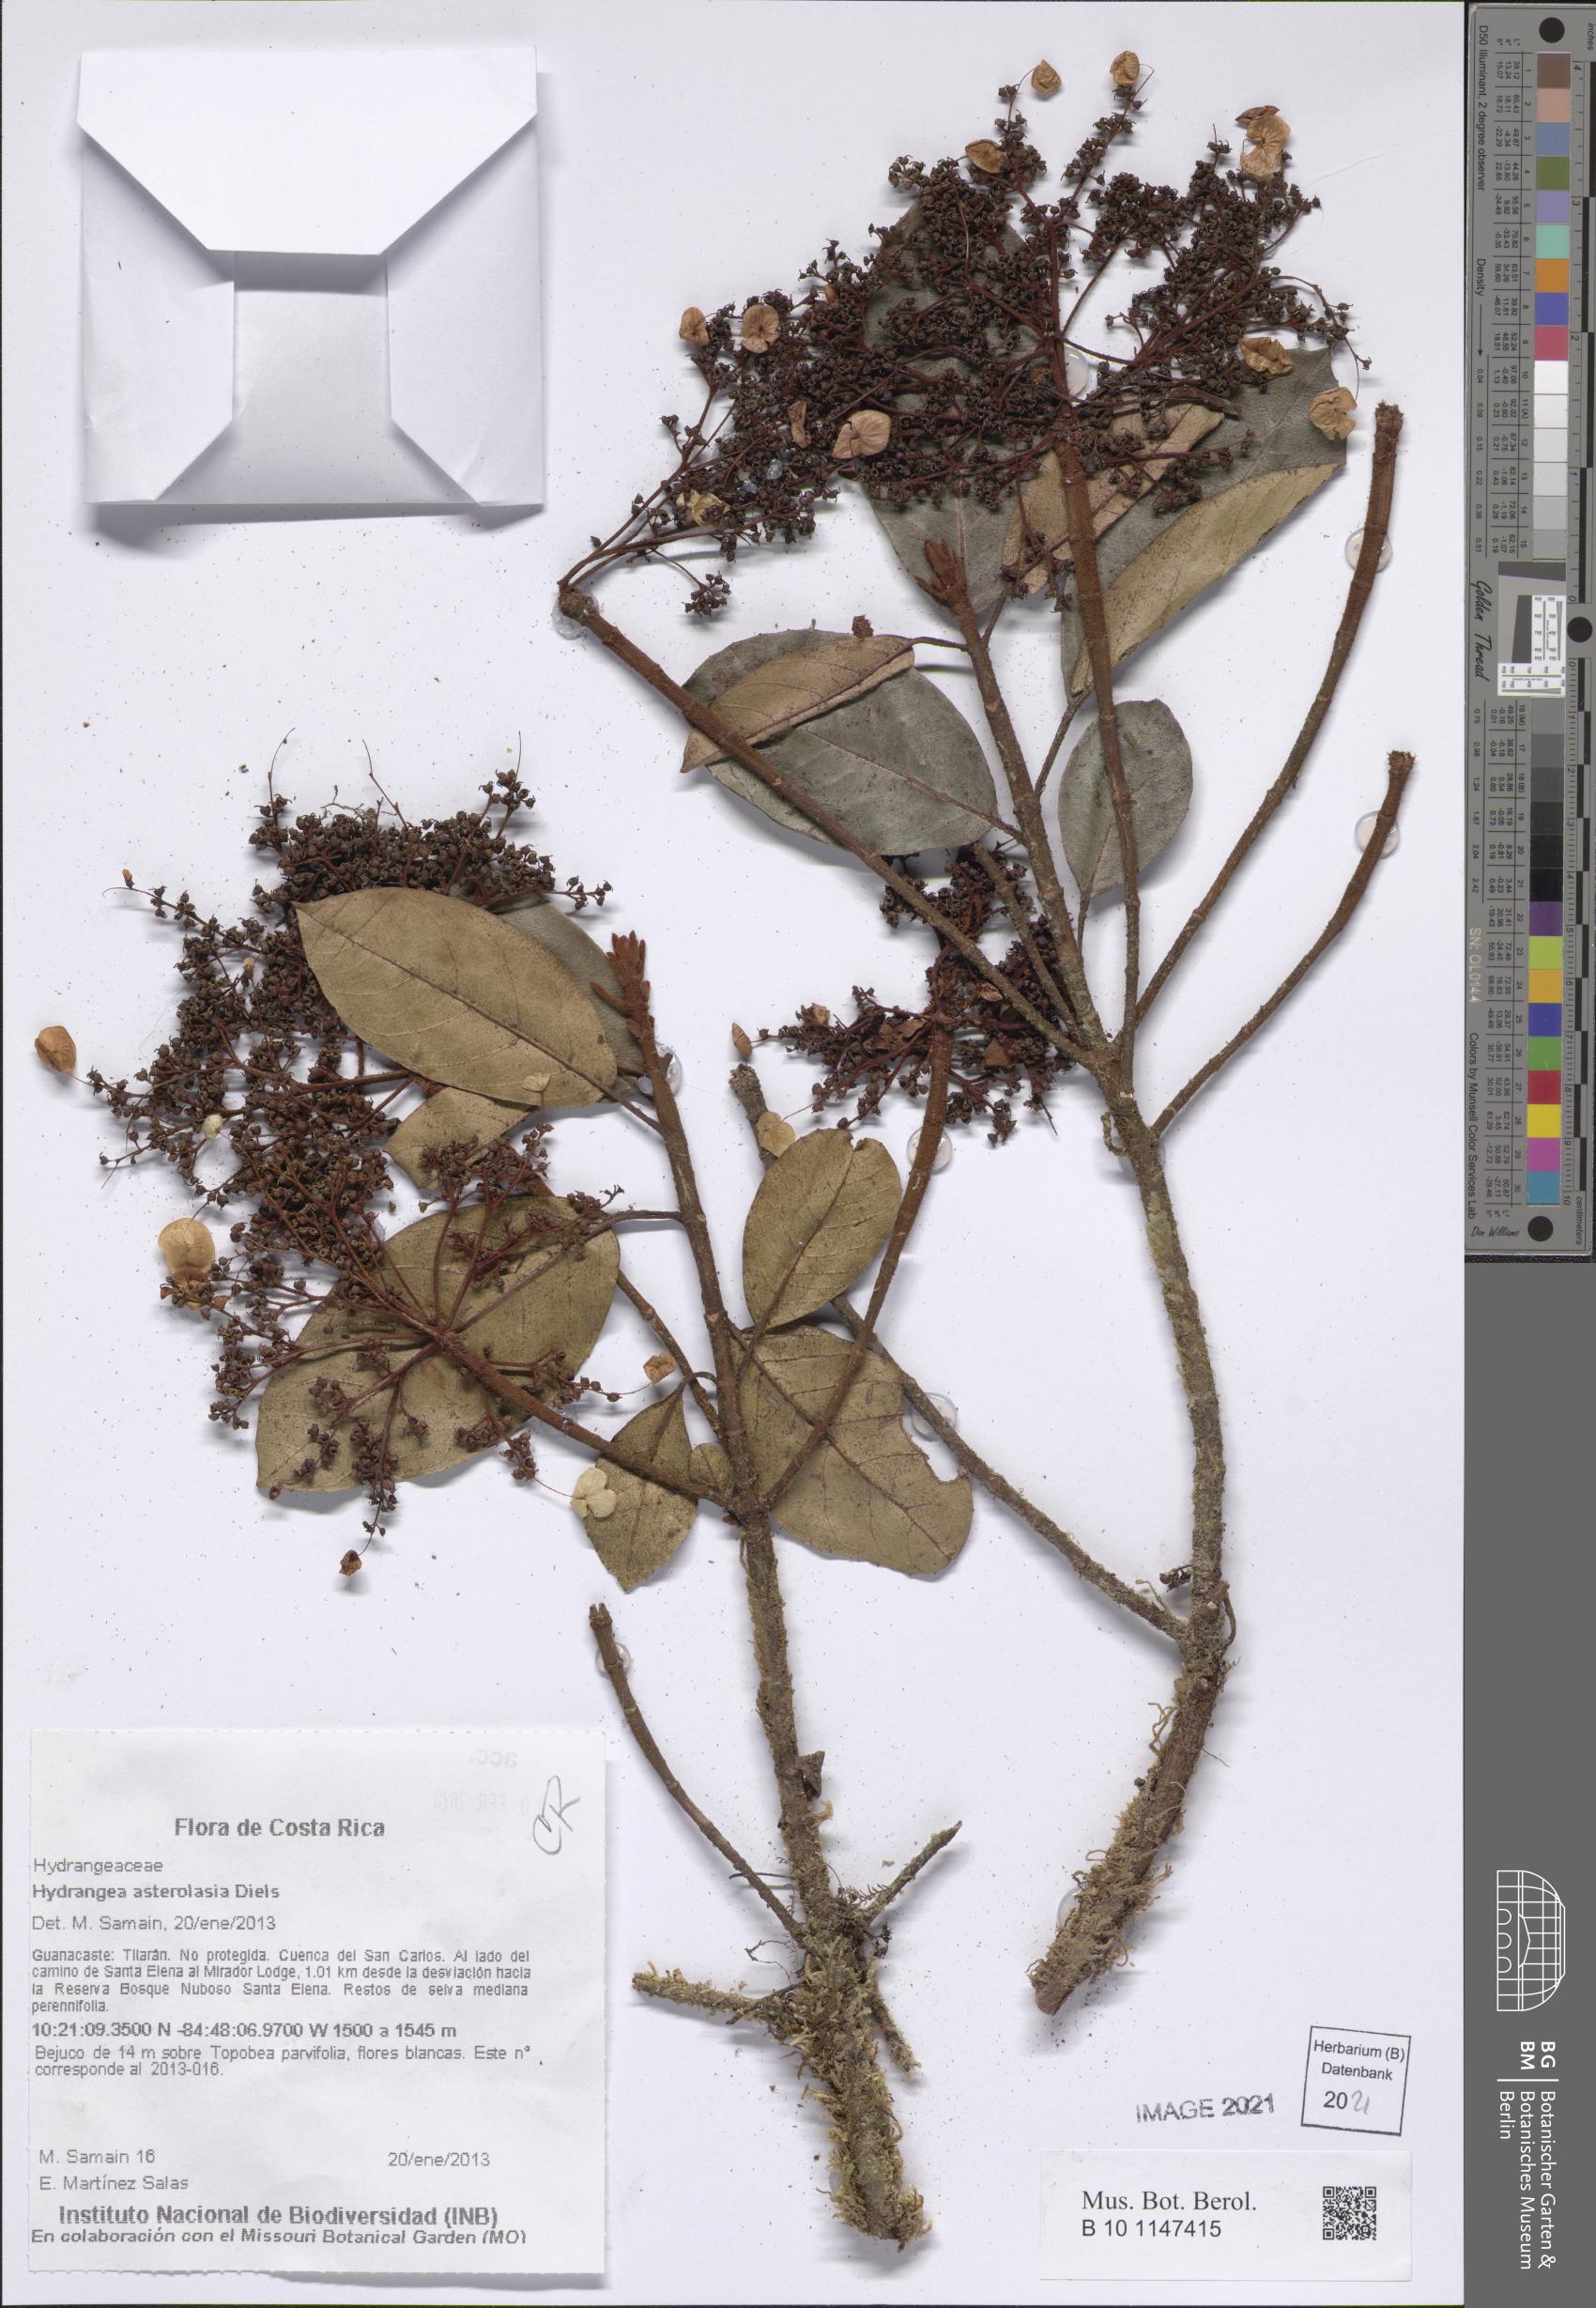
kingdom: Plantae
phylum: Tracheophyta
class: Magnoliopsida
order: Cornales
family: Hydrangeaceae
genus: Hydrangea
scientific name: Hydrangea asterolasia
